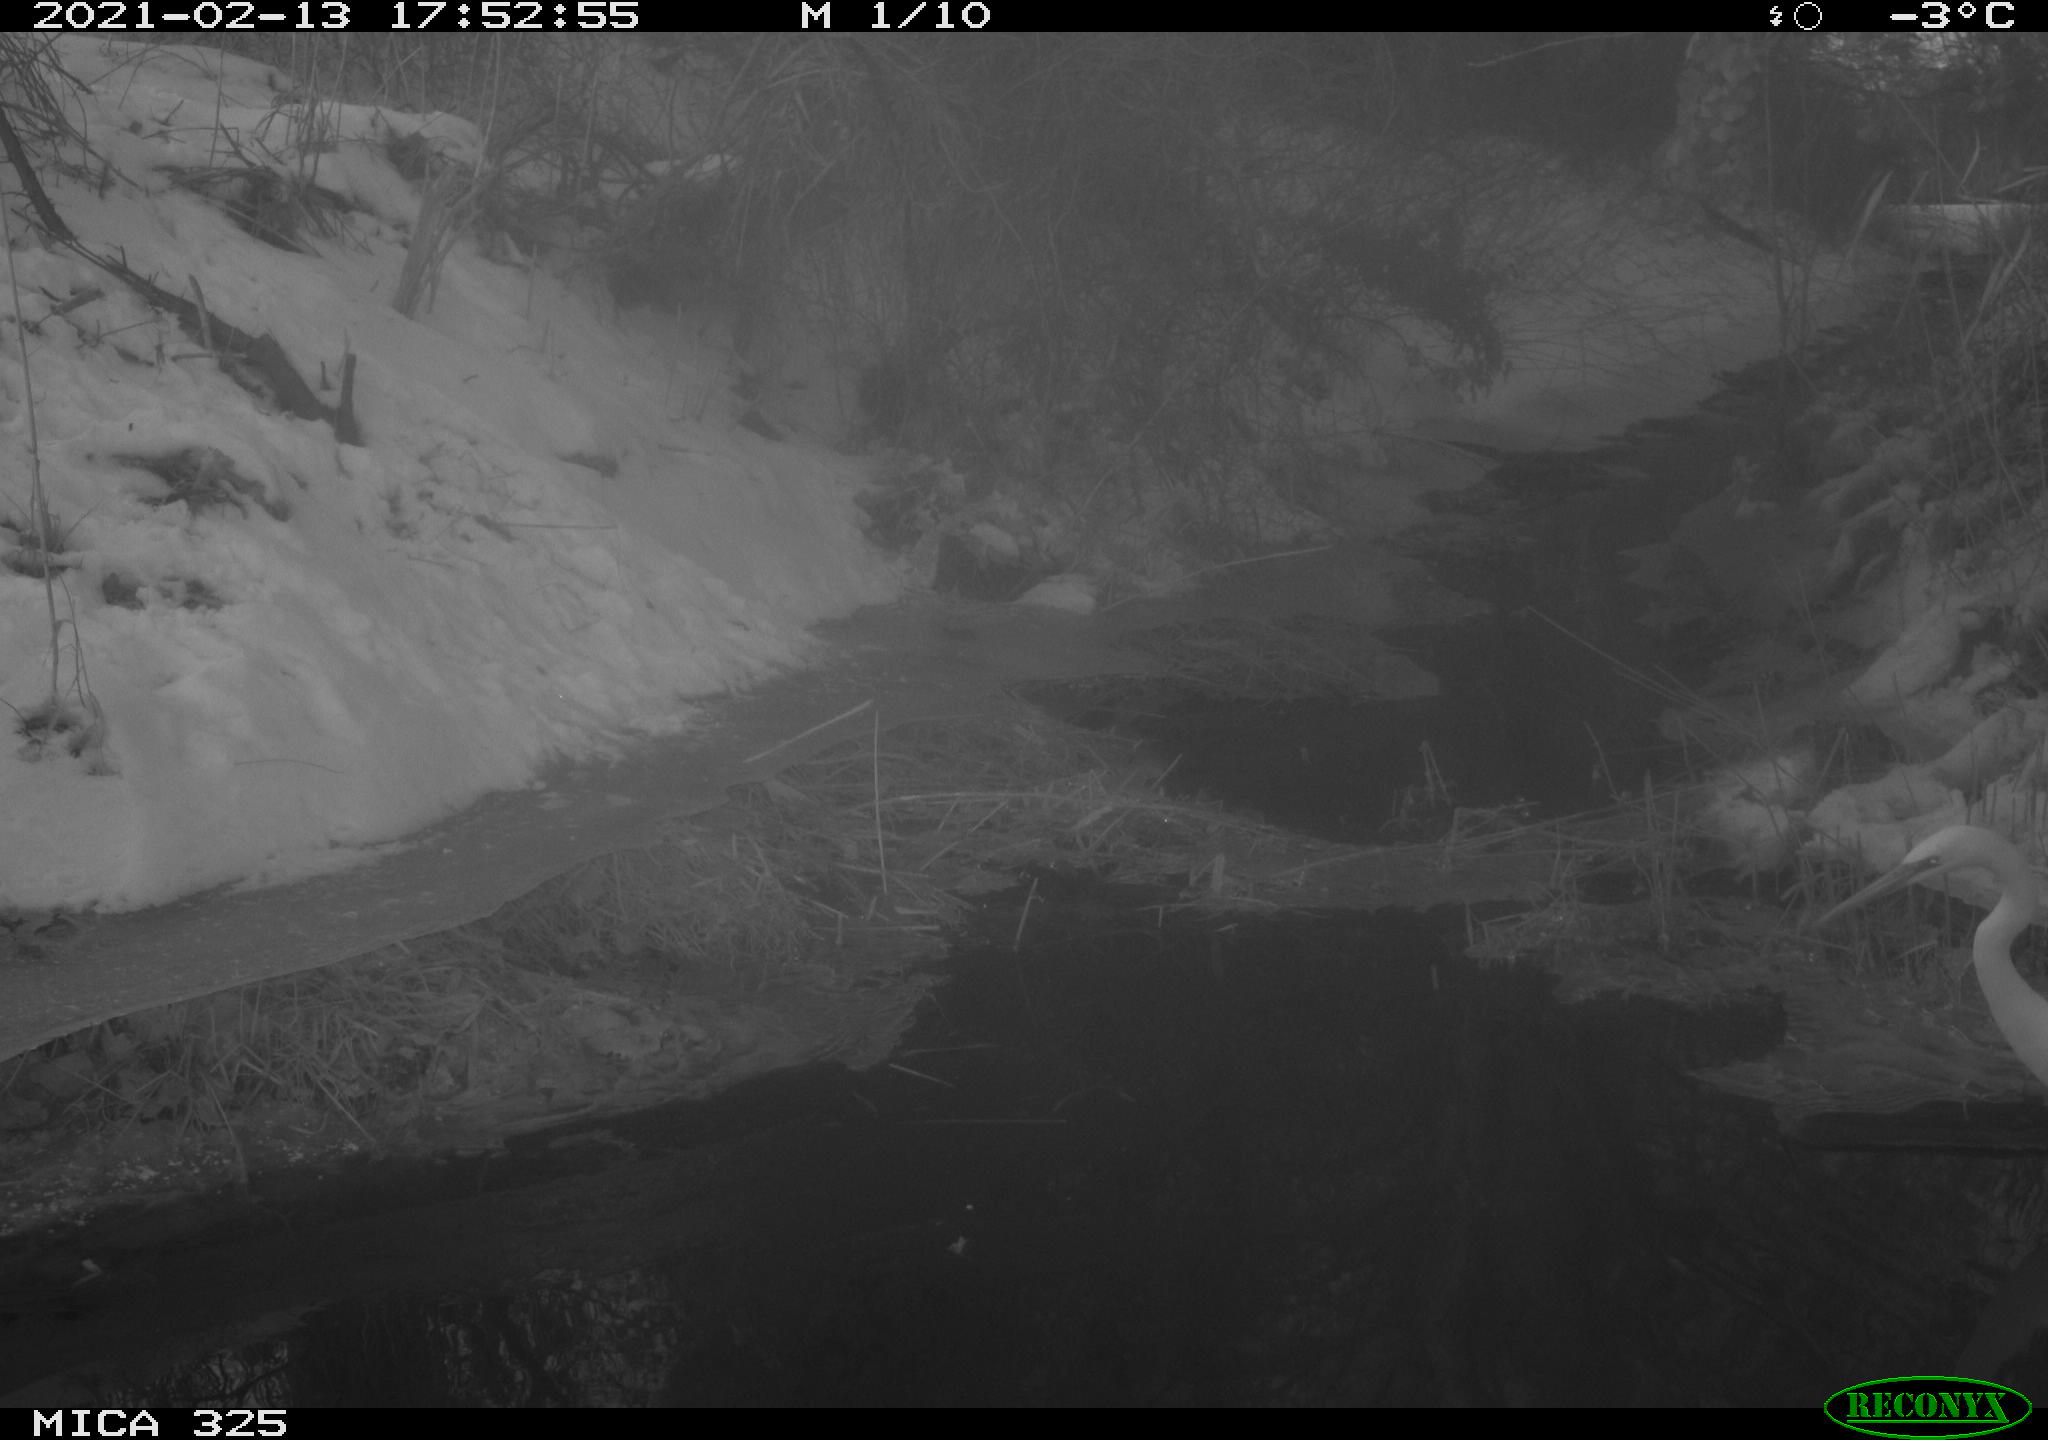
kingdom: Animalia
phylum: Chordata
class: Aves
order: Pelecaniformes
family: Ardeidae
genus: Ardea
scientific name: Ardea alba
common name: Great egret
